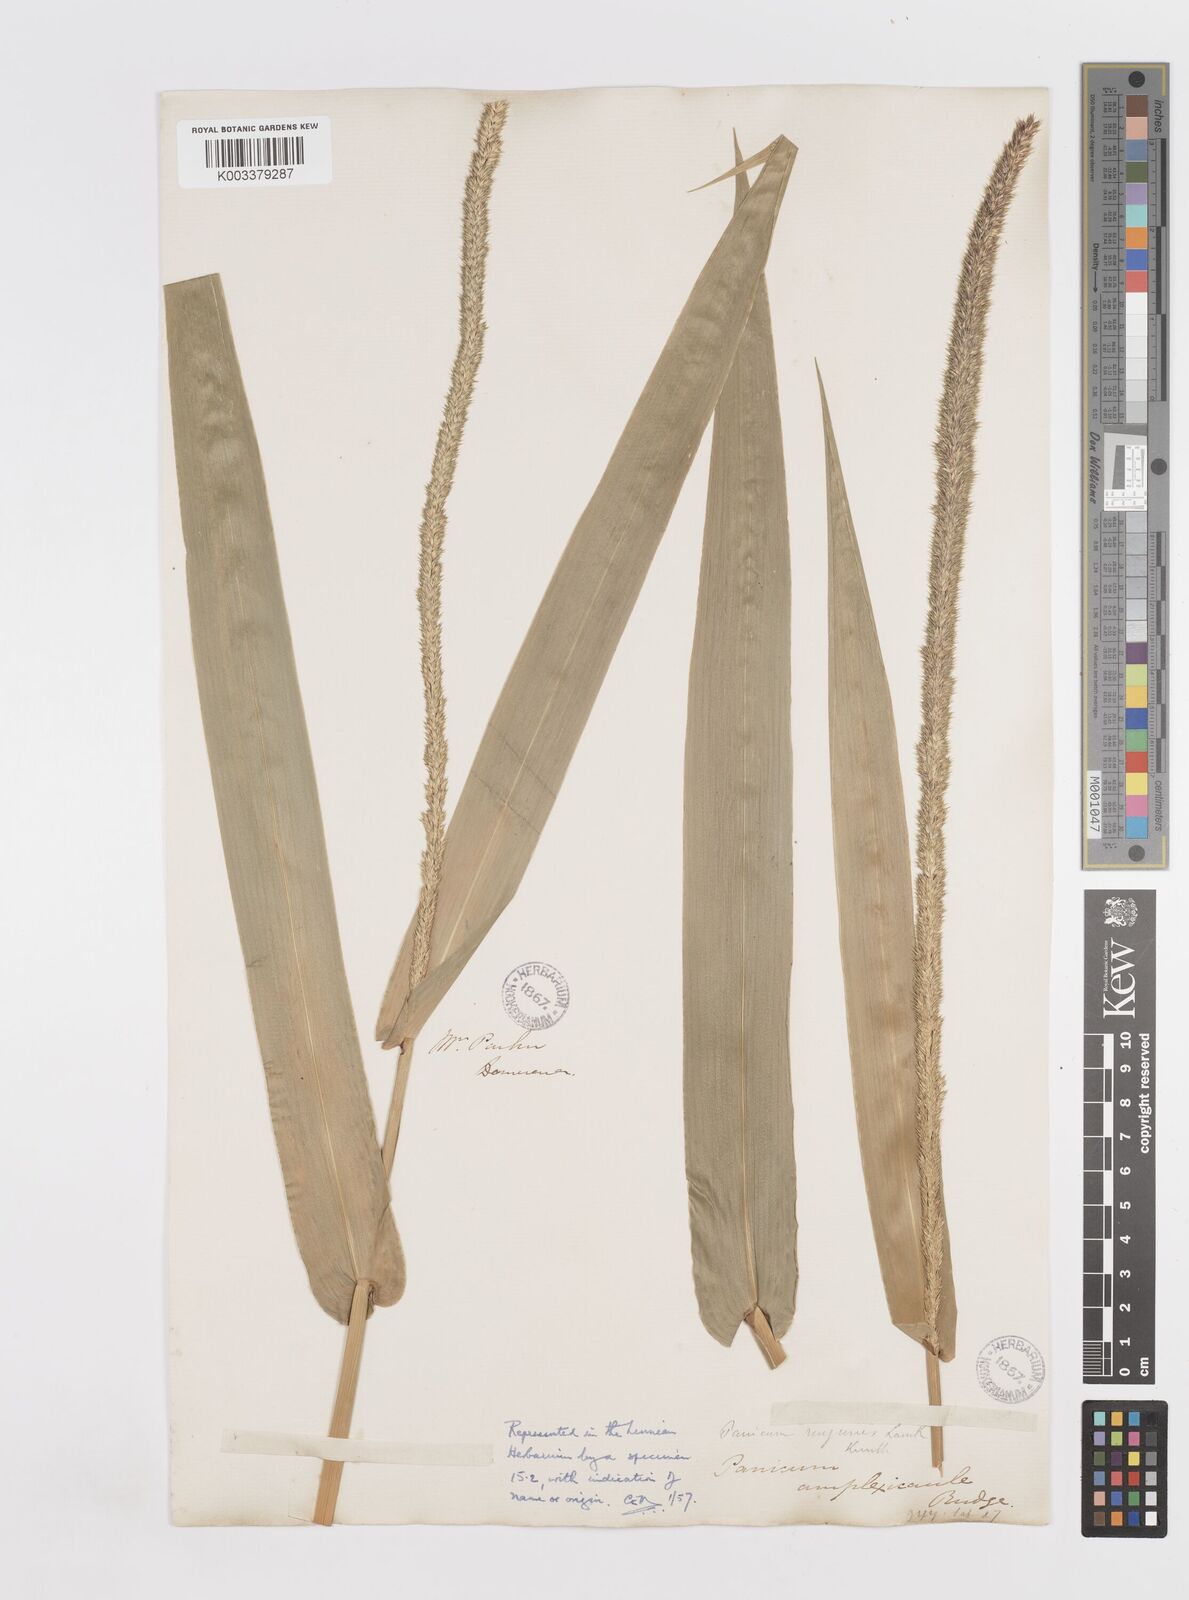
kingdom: Plantae
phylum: Tracheophyta
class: Liliopsida
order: Poales
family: Poaceae
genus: Hymenachne
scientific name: Hymenachne amplexicaulis
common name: Olive hymenachne
